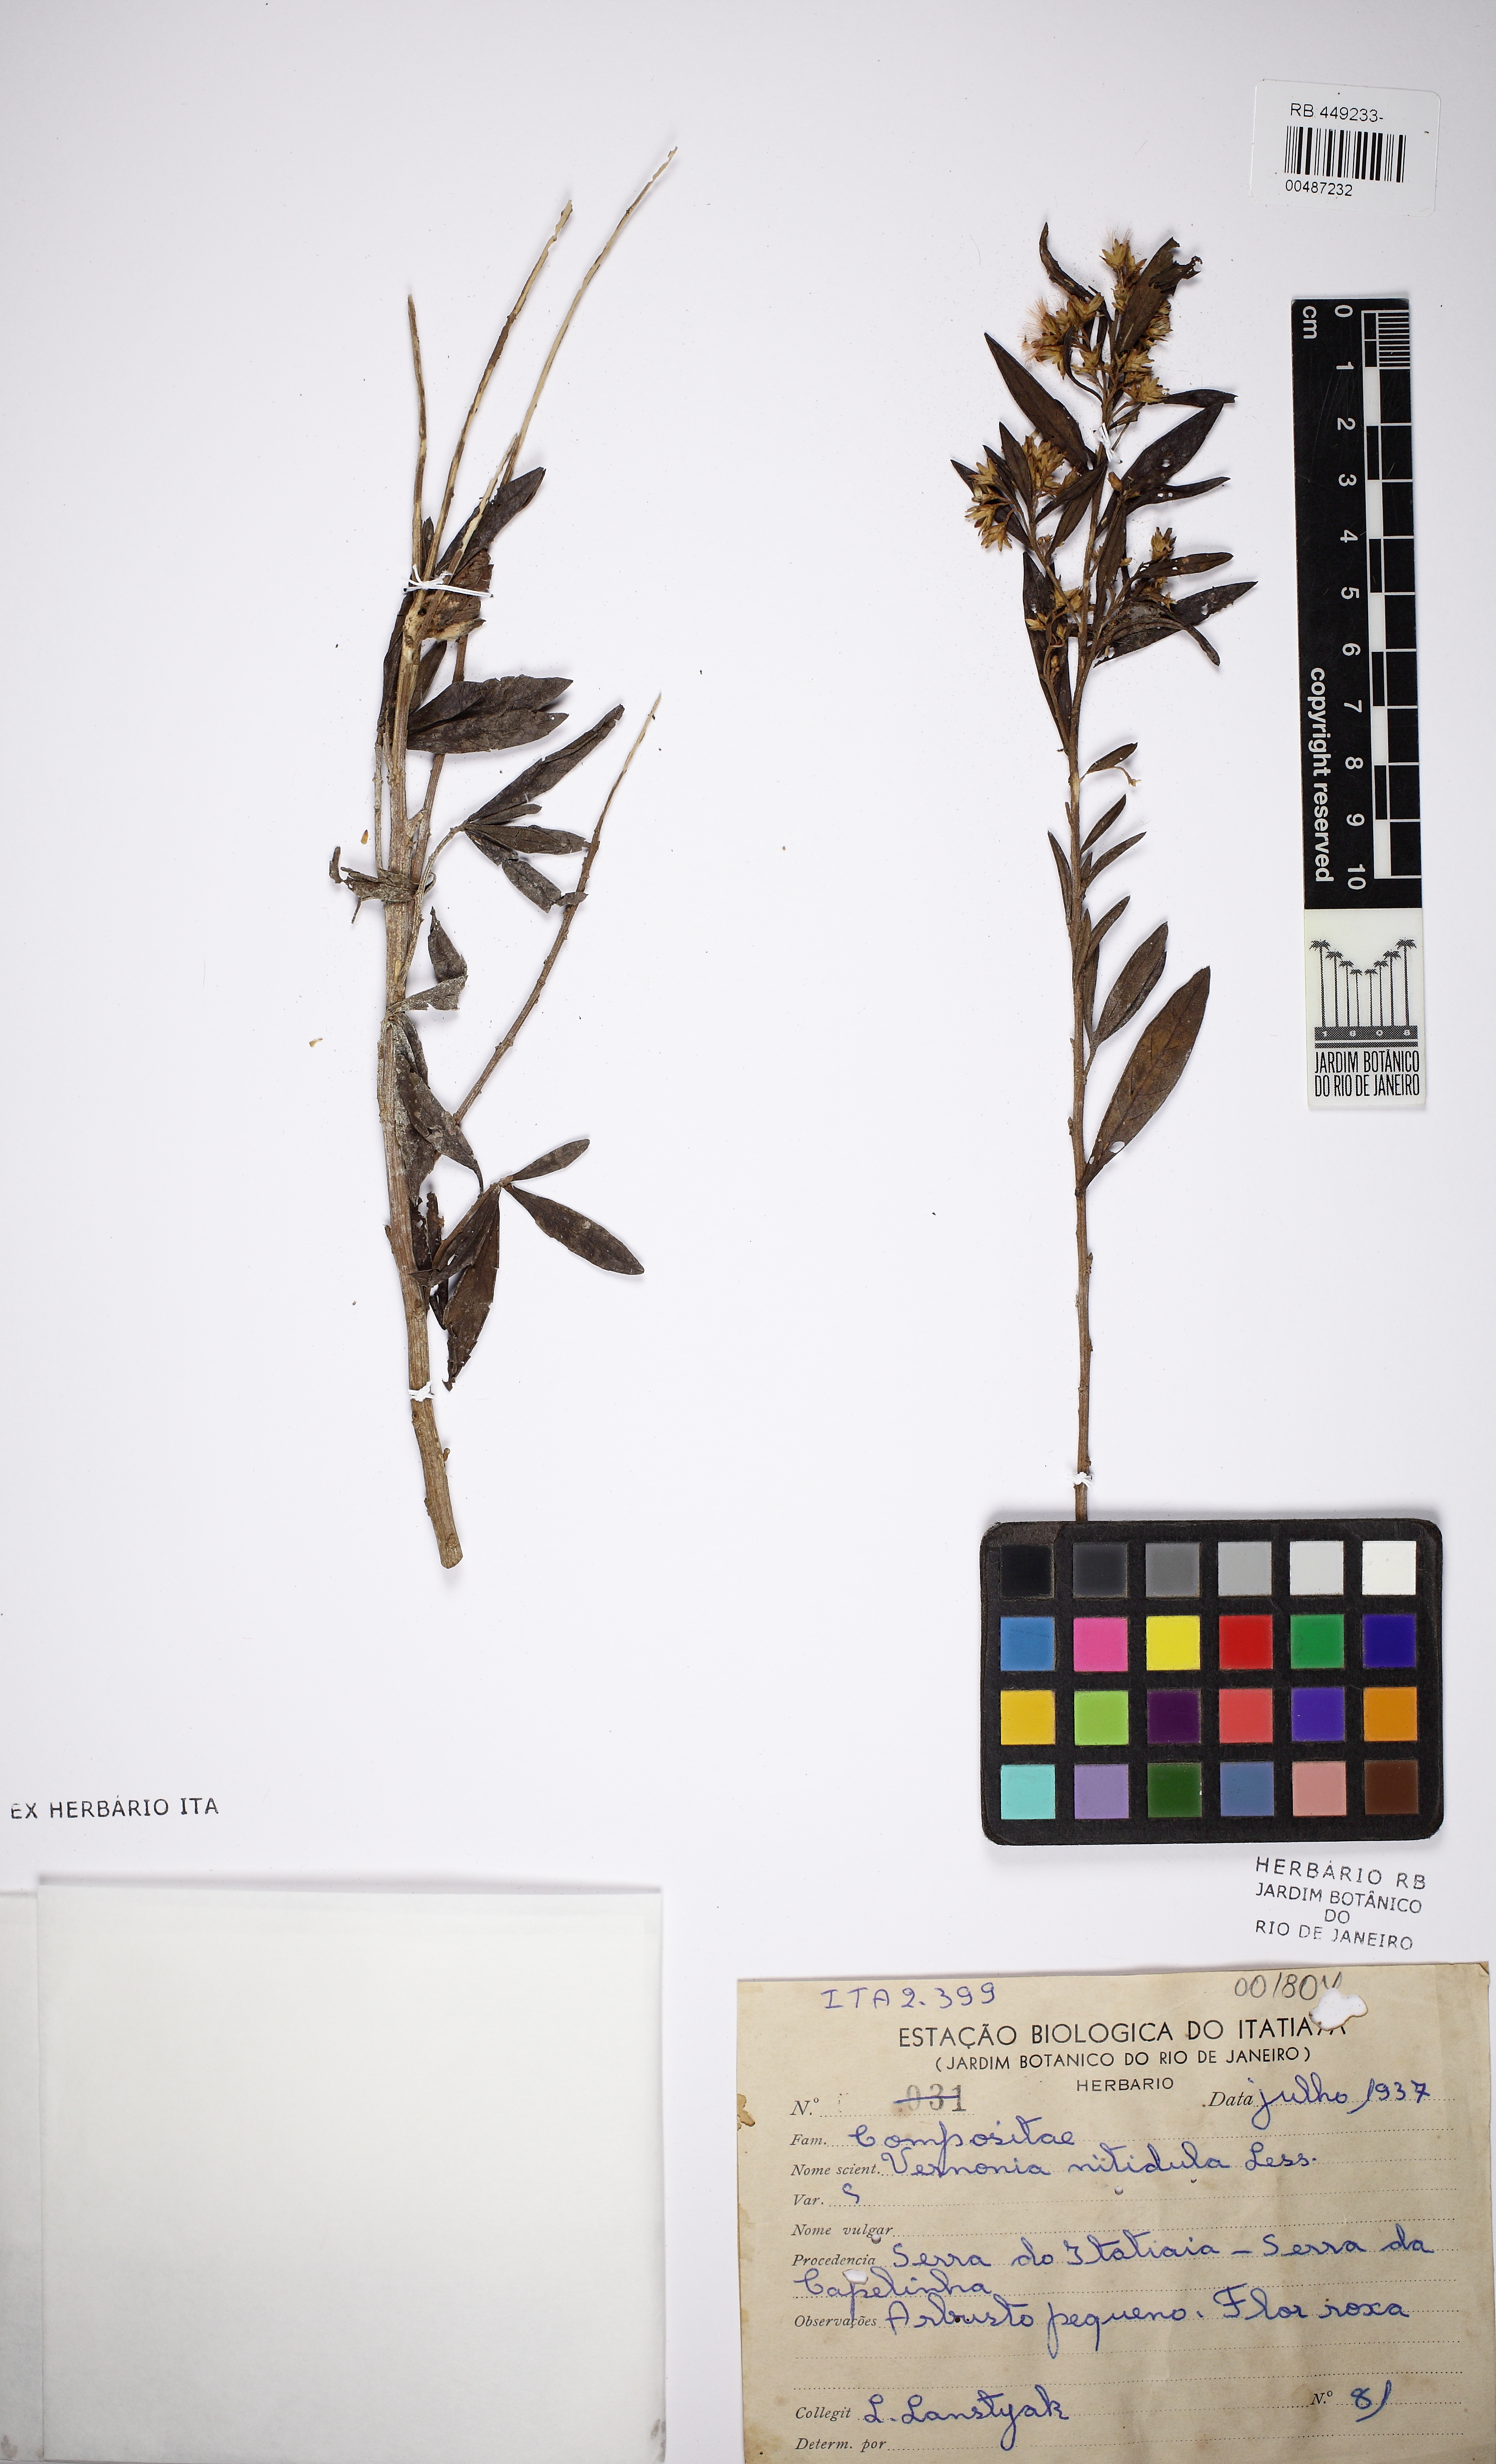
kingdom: Plantae
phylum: Tracheophyta
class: Magnoliopsida
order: Asterales
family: Asteraceae
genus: Vernonanthura
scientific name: Vernonanthura montevidensis
